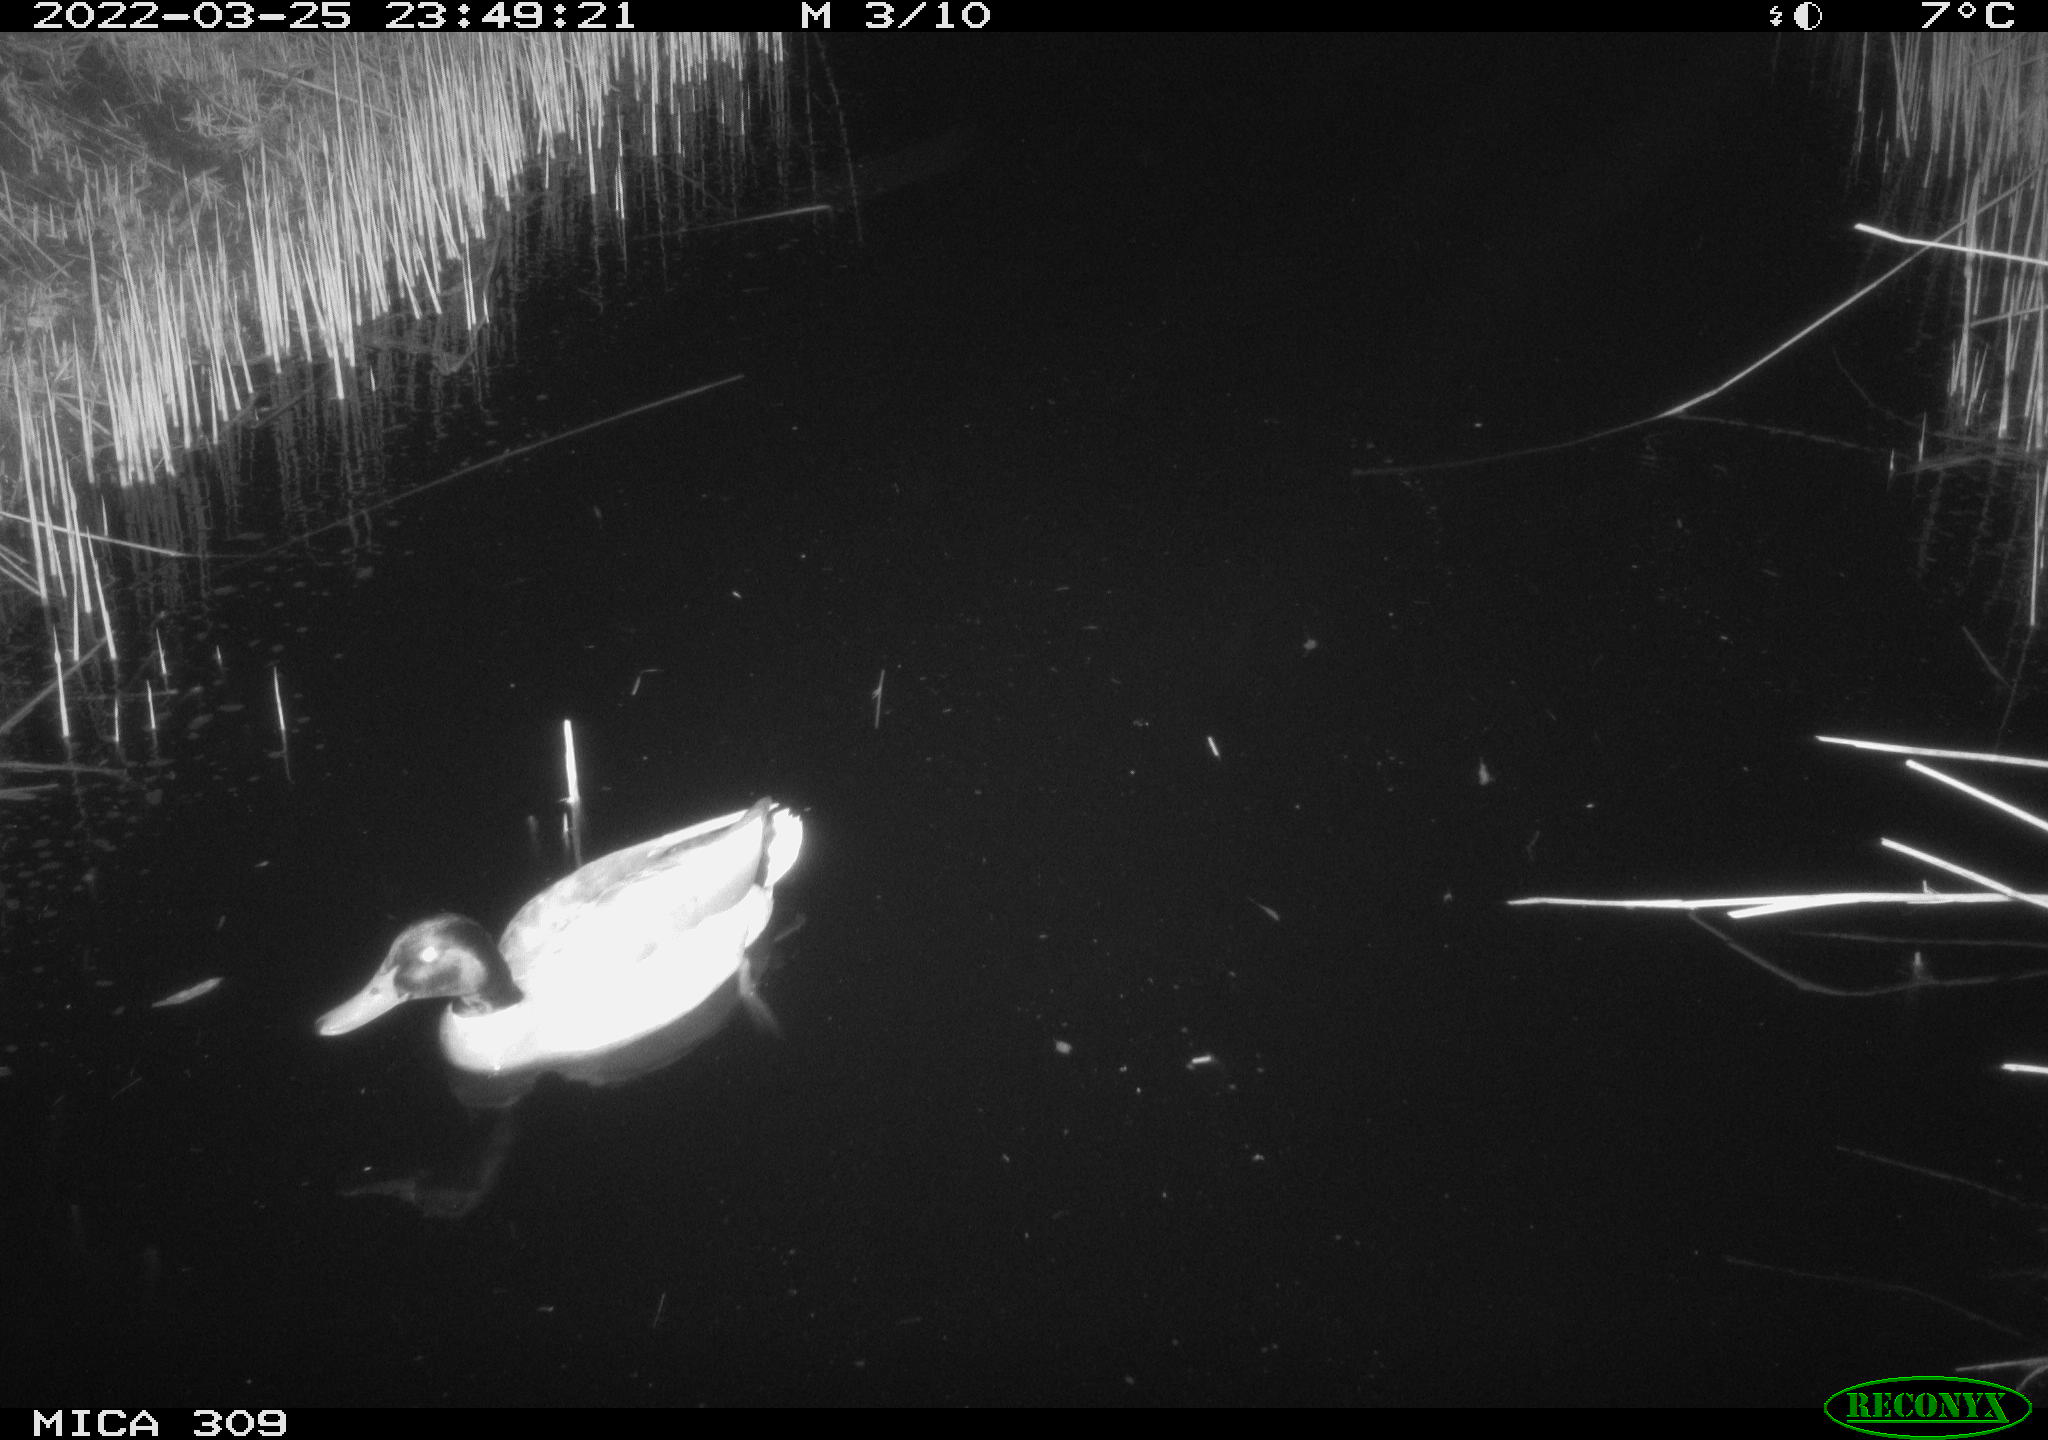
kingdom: Animalia
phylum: Chordata
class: Aves
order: Anseriformes
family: Anatidae
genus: Anas
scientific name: Anas platyrhynchos
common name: Mallard
